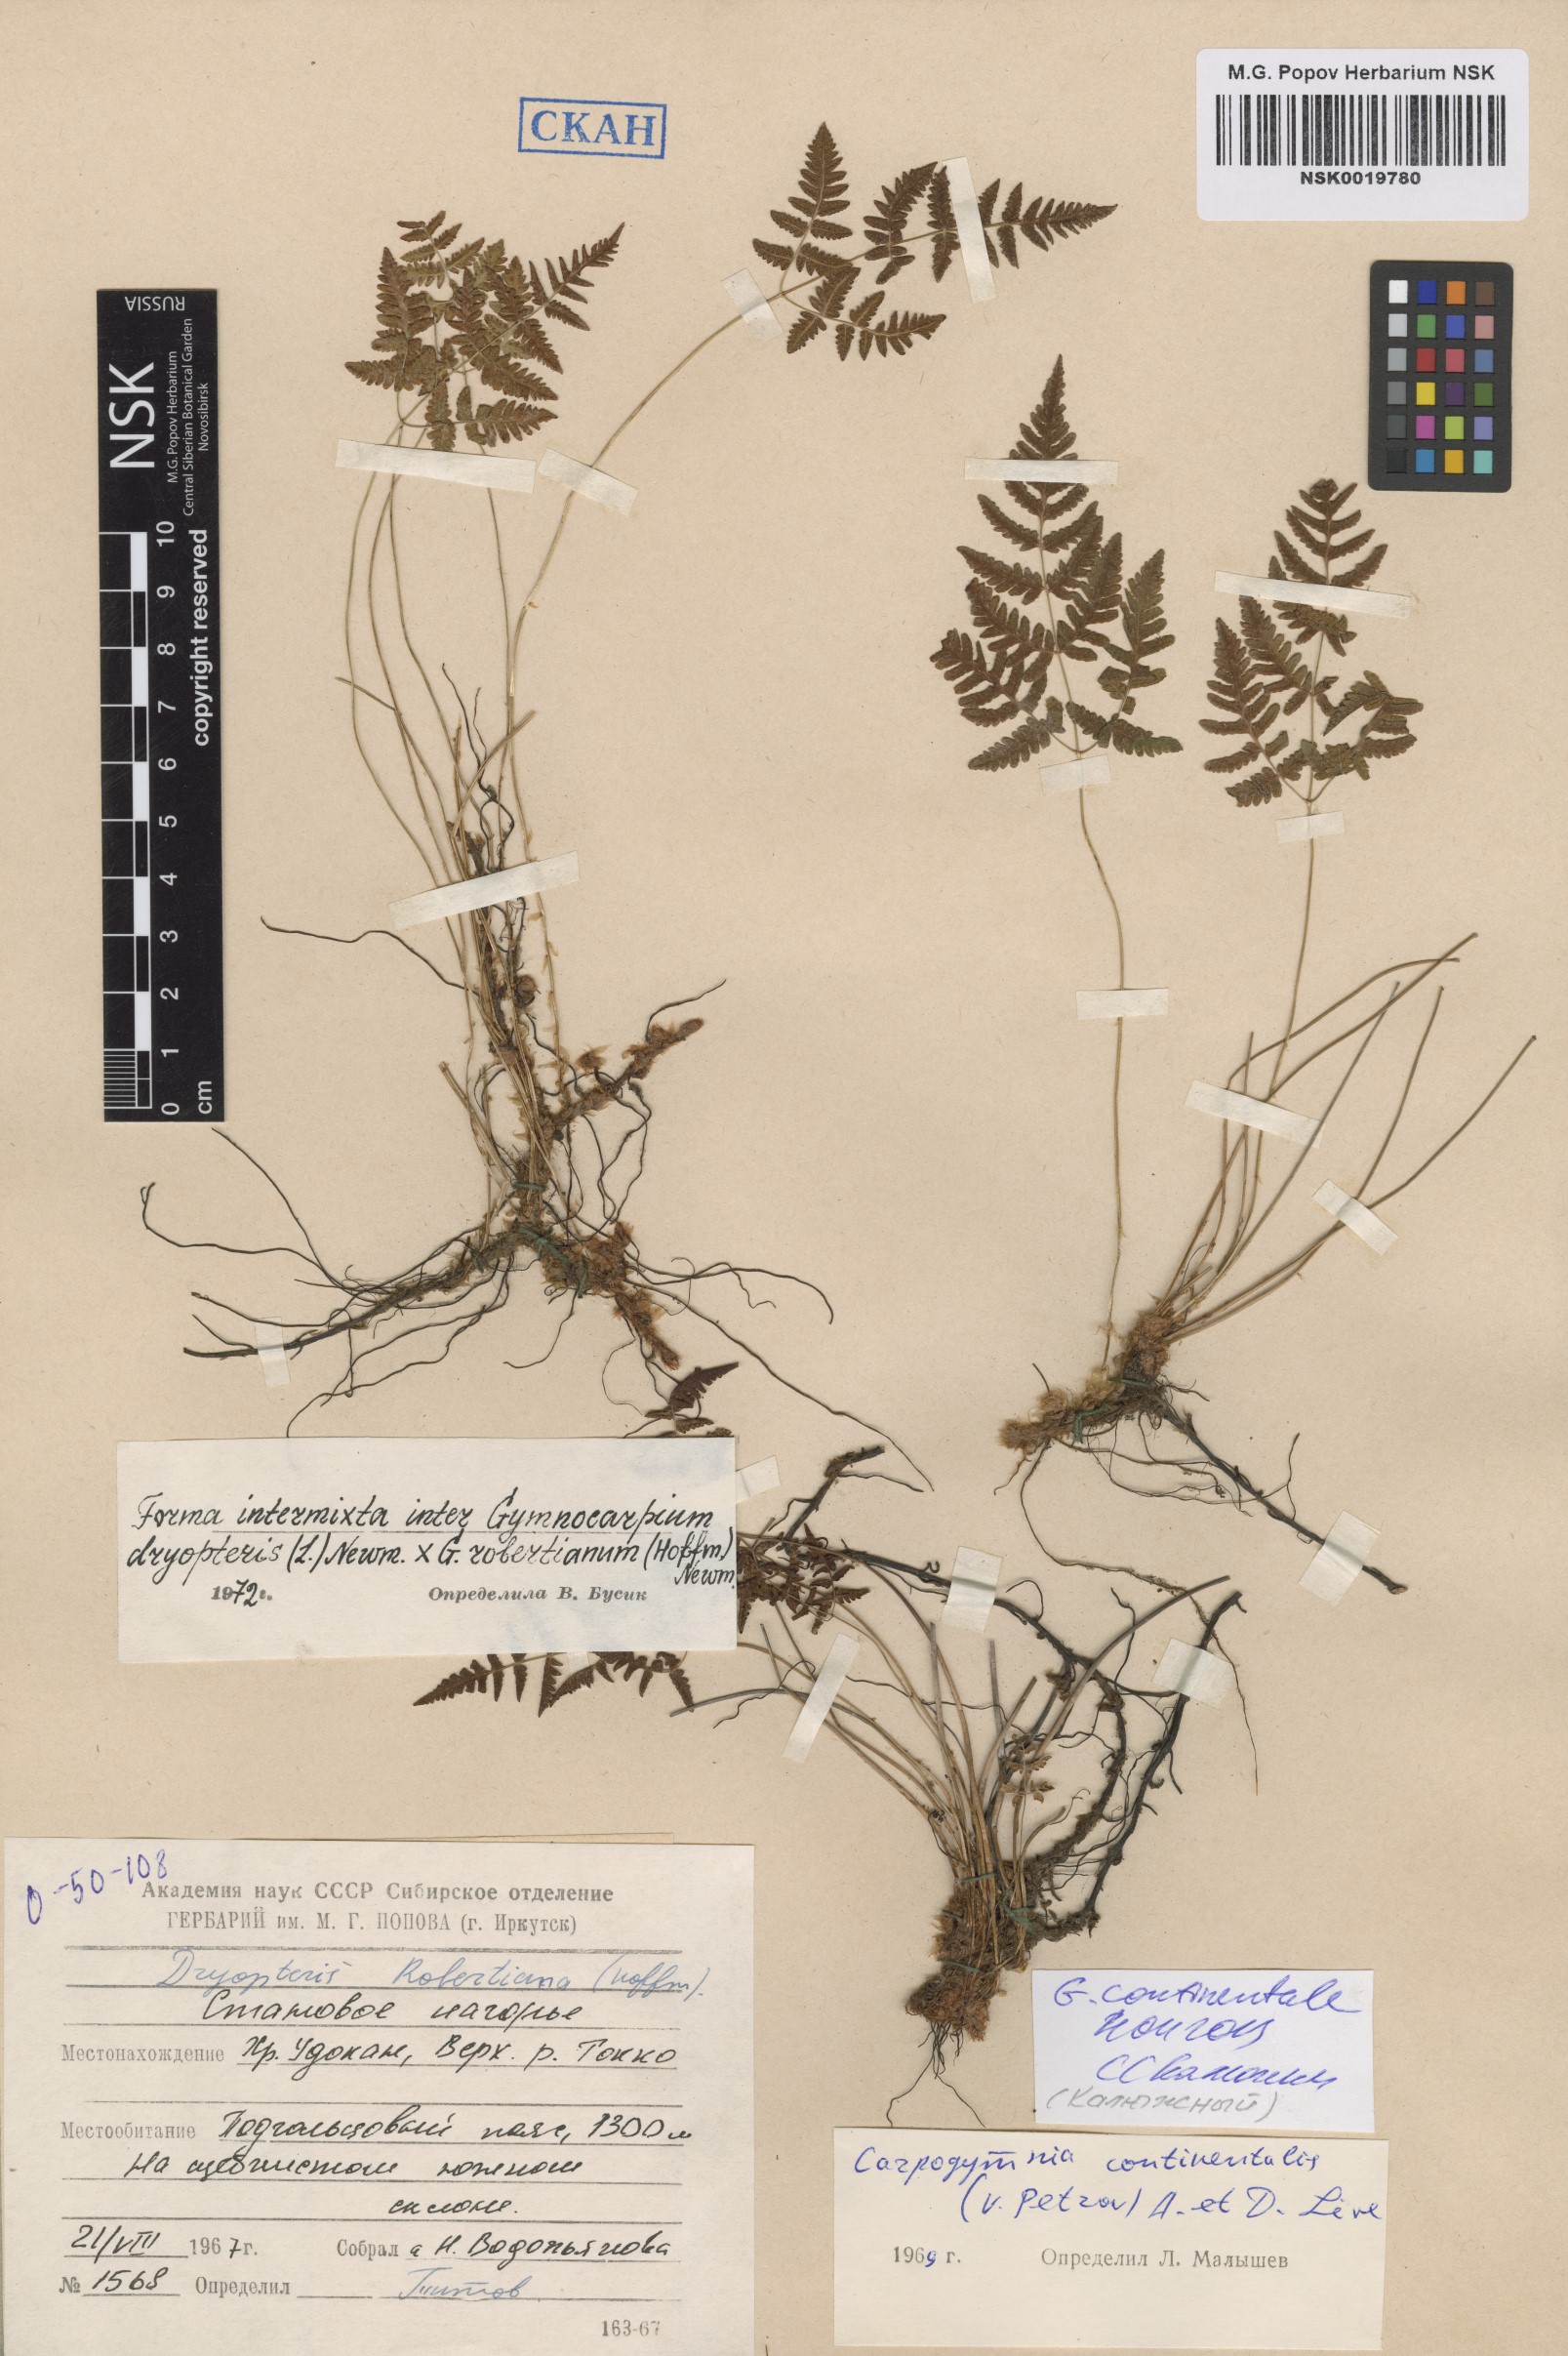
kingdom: Plantae
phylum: Tracheophyta
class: Polypodiopsida
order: Polypodiales
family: Cystopteridaceae
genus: Gymnocarpium
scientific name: Gymnocarpium continentale
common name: Asian oak fern
